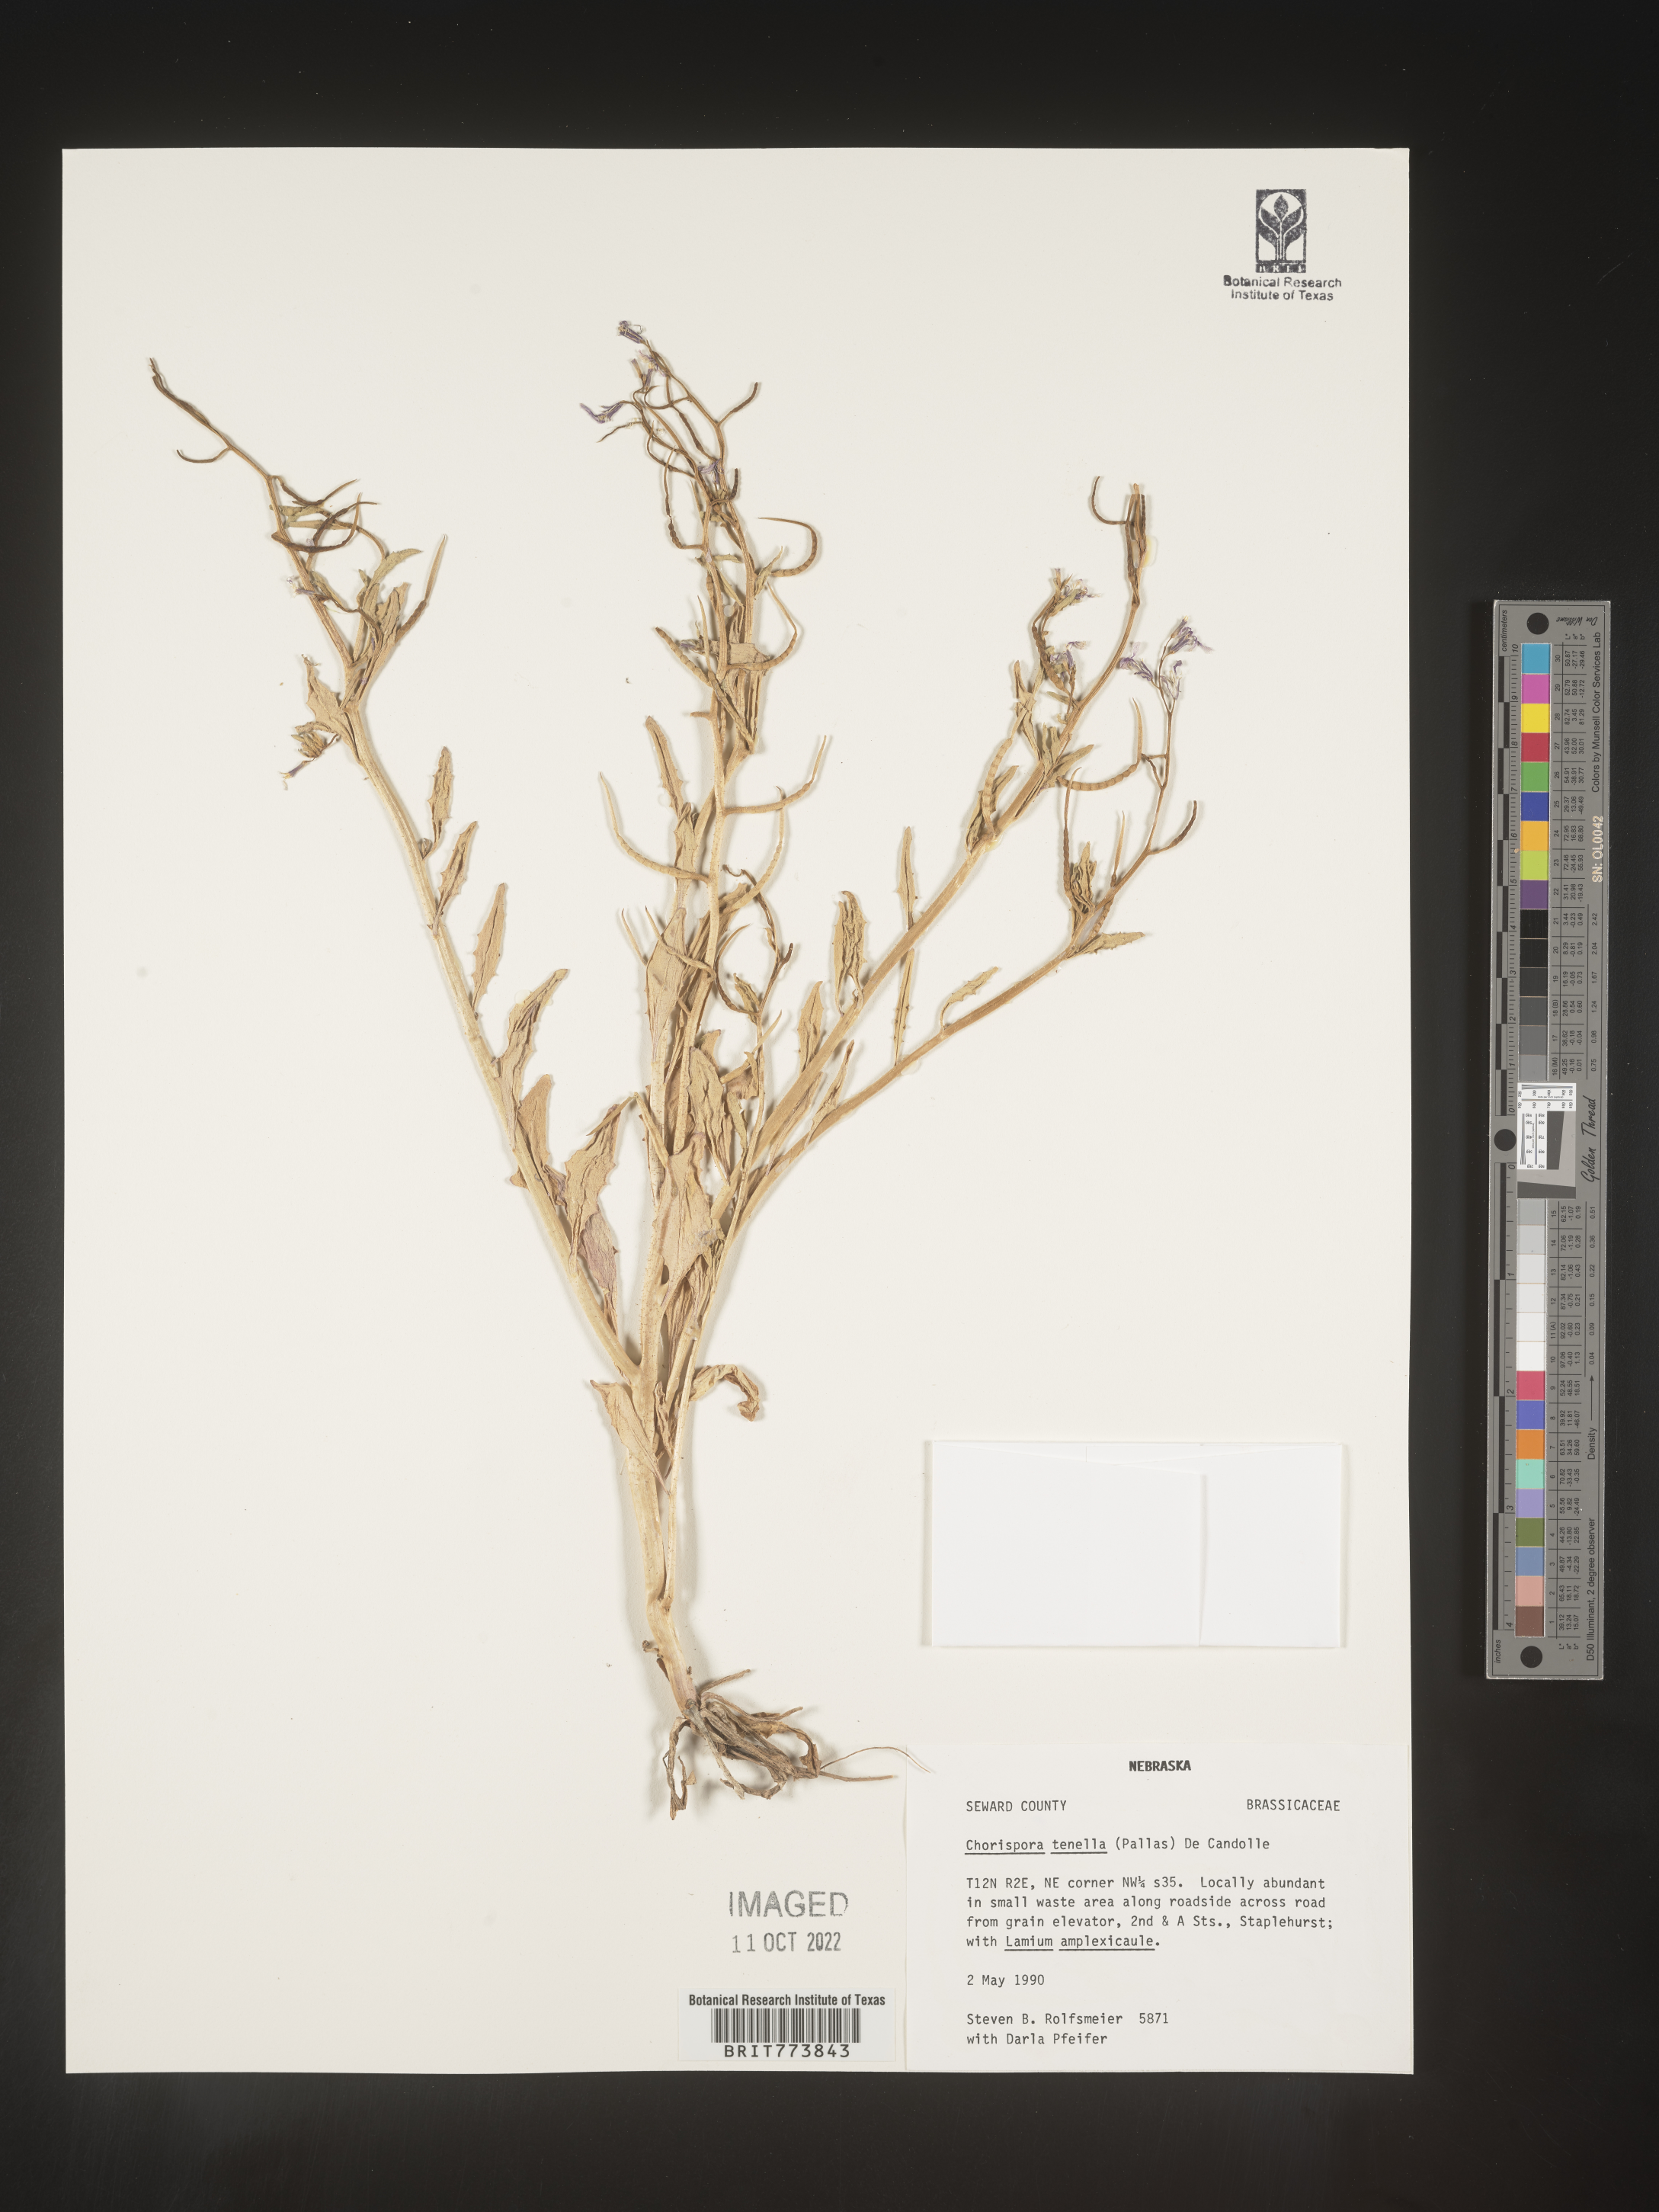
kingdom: Plantae
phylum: Tracheophyta
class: Magnoliopsida
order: Brassicales
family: Brassicaceae
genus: Chorispora
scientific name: Chorispora tenella
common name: Crossflower
